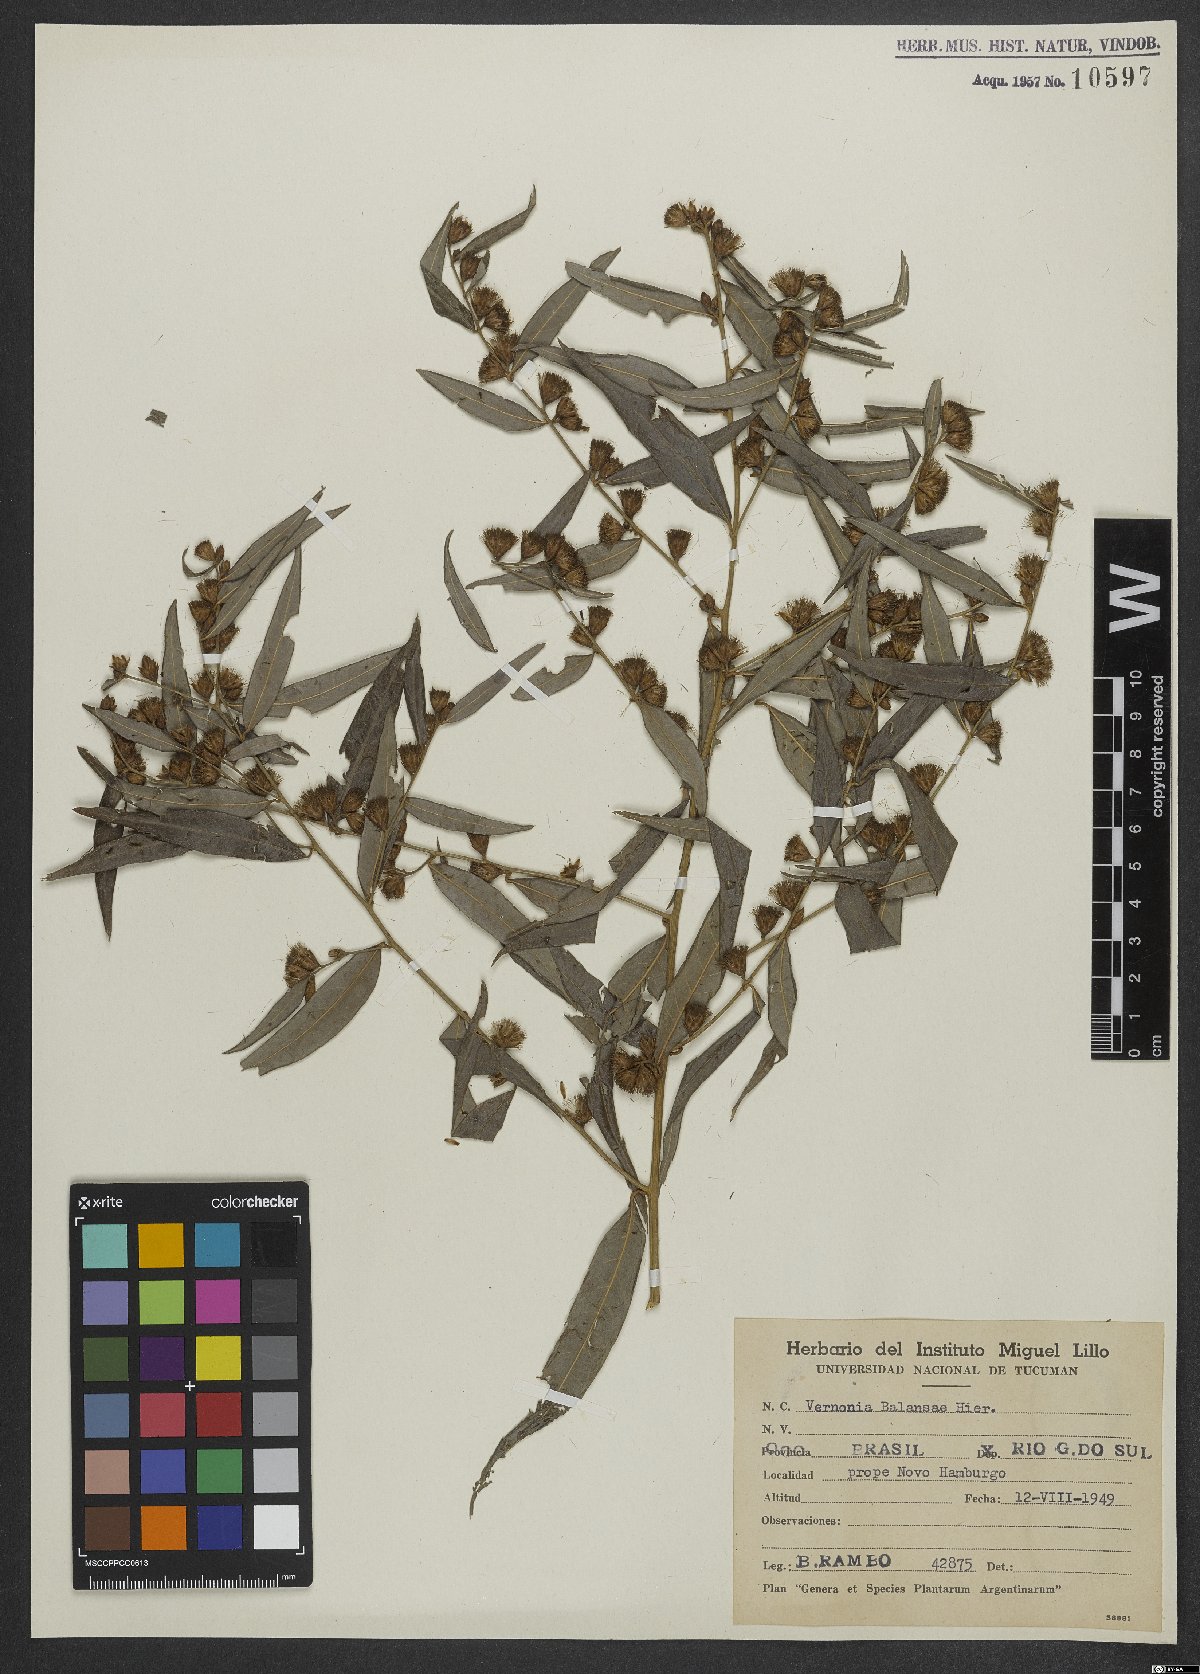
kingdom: Plantae
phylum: Tracheophyta
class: Magnoliopsida
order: Asterales
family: Asteraceae
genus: Lepidaploa
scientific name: Lepidaploa balansae
